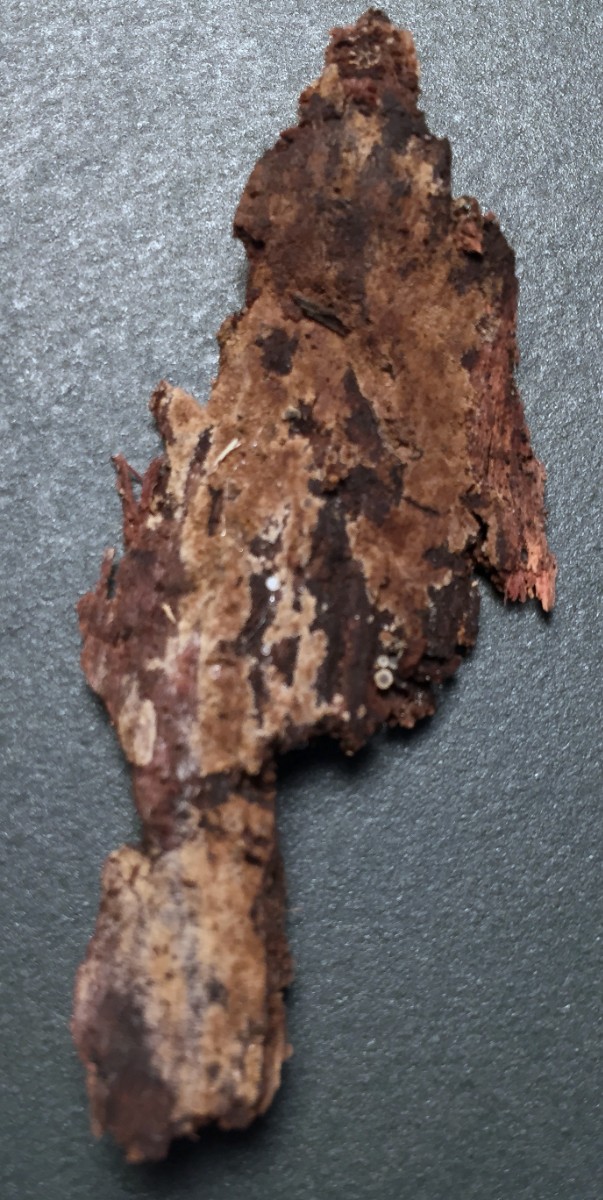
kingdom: Fungi
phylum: Basidiomycota
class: Agaricomycetes
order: Thelephorales
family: Thelephoraceae
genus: Tomentella
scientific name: Tomentella griseoumbrina
